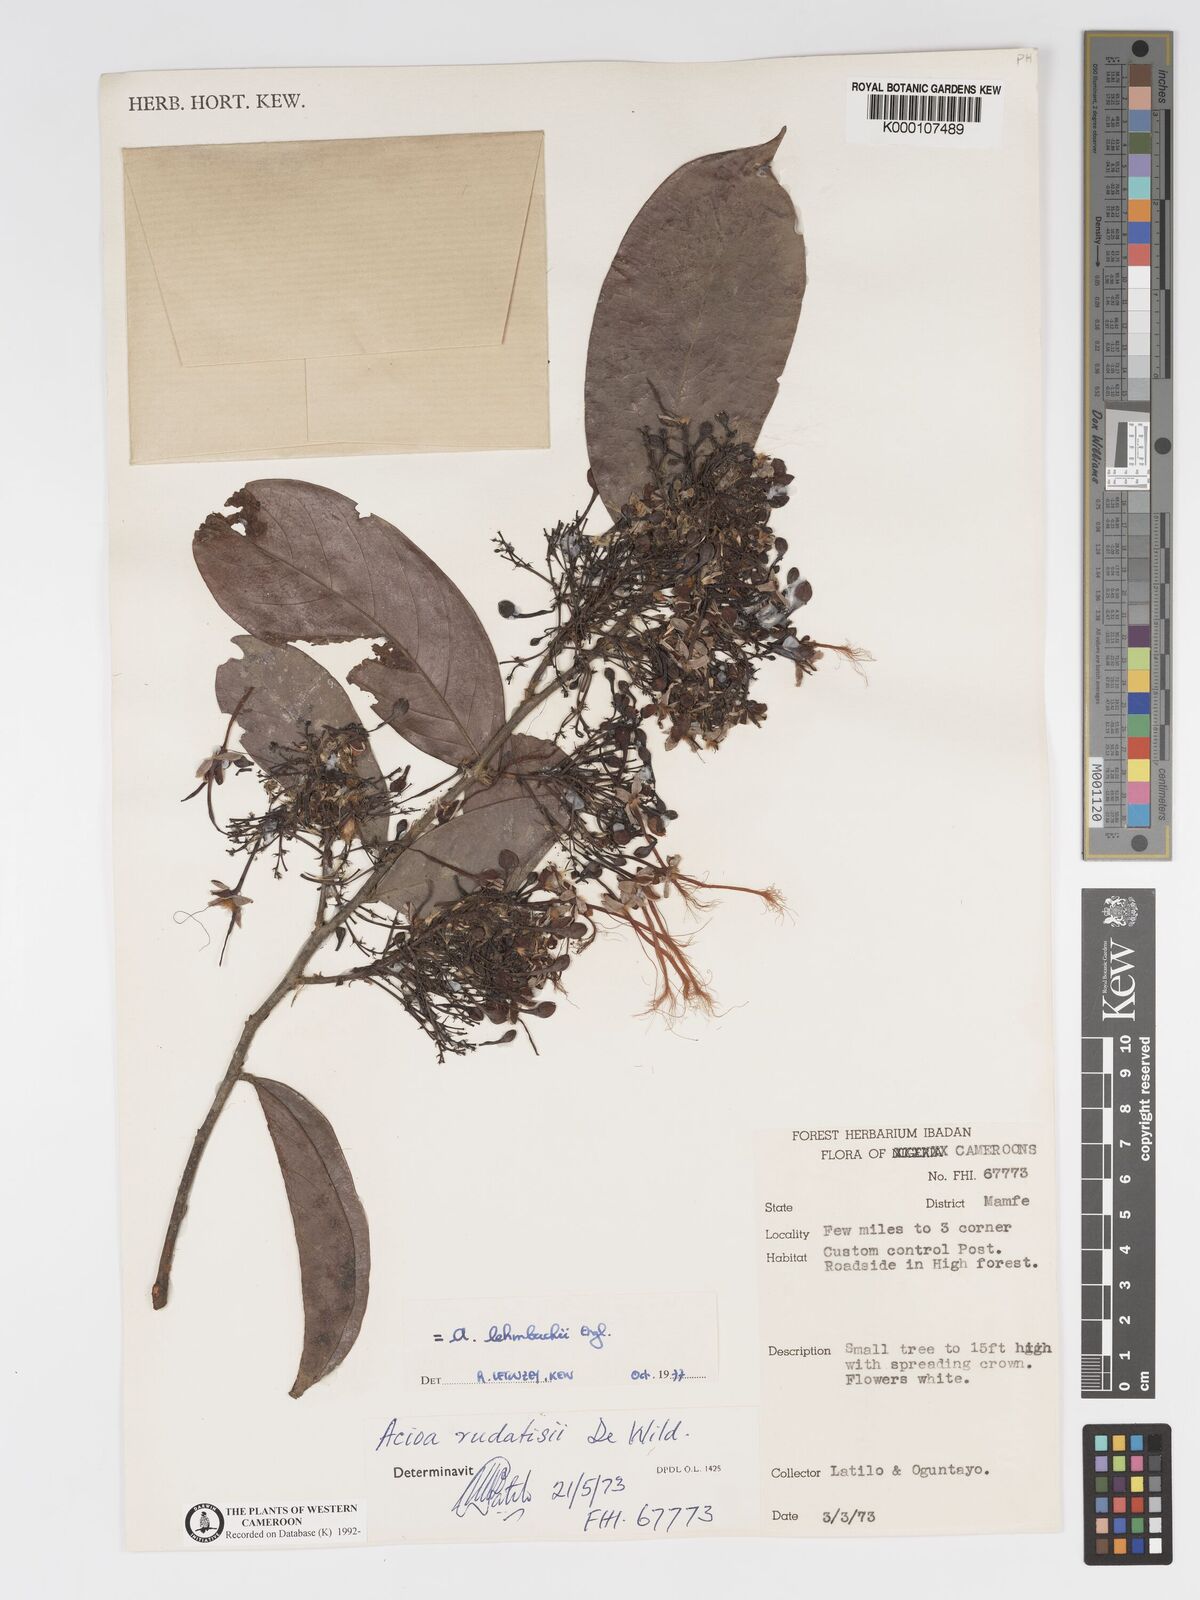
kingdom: Plantae
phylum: Tracheophyta
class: Magnoliopsida
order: Malpighiales
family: Chrysobalanaceae
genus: Dactyladenia
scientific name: Dactyladenia lehmbachii
